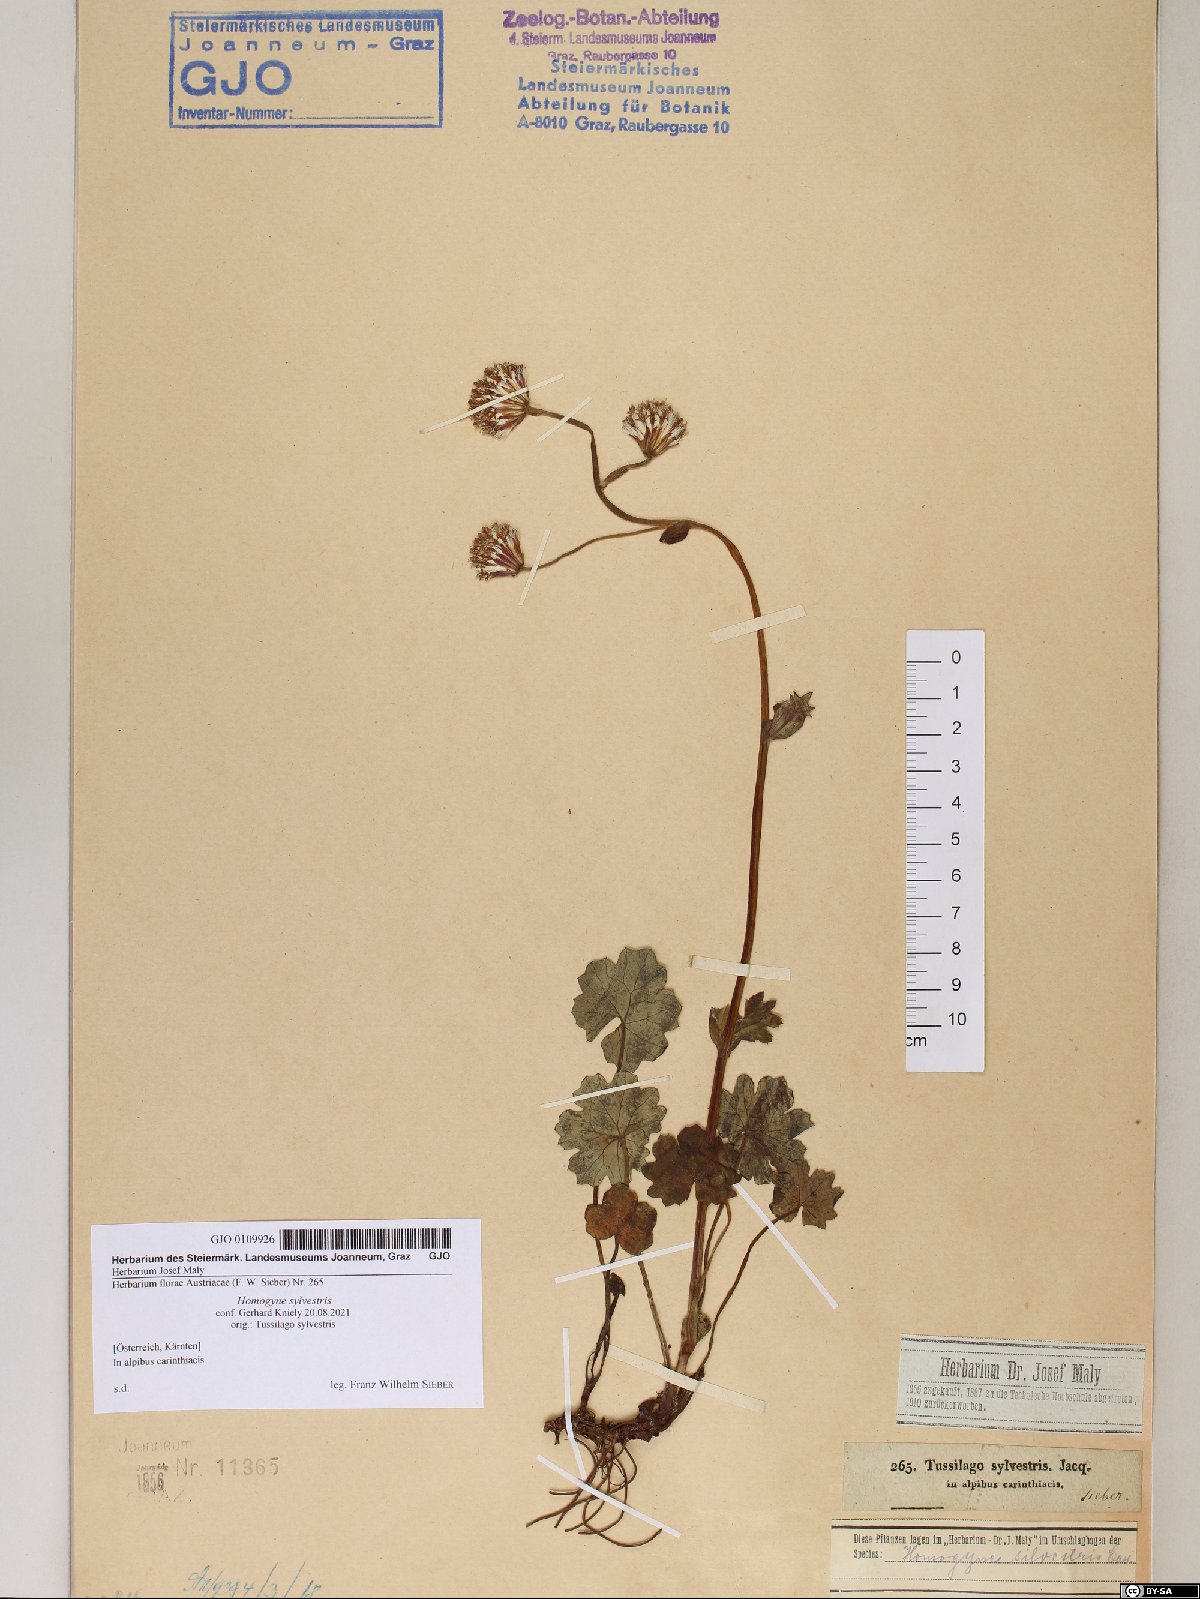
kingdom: Plantae
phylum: Tracheophyta
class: Magnoliopsida
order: Asterales
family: Asteraceae
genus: Homogyne
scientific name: Homogyne sylvestris
